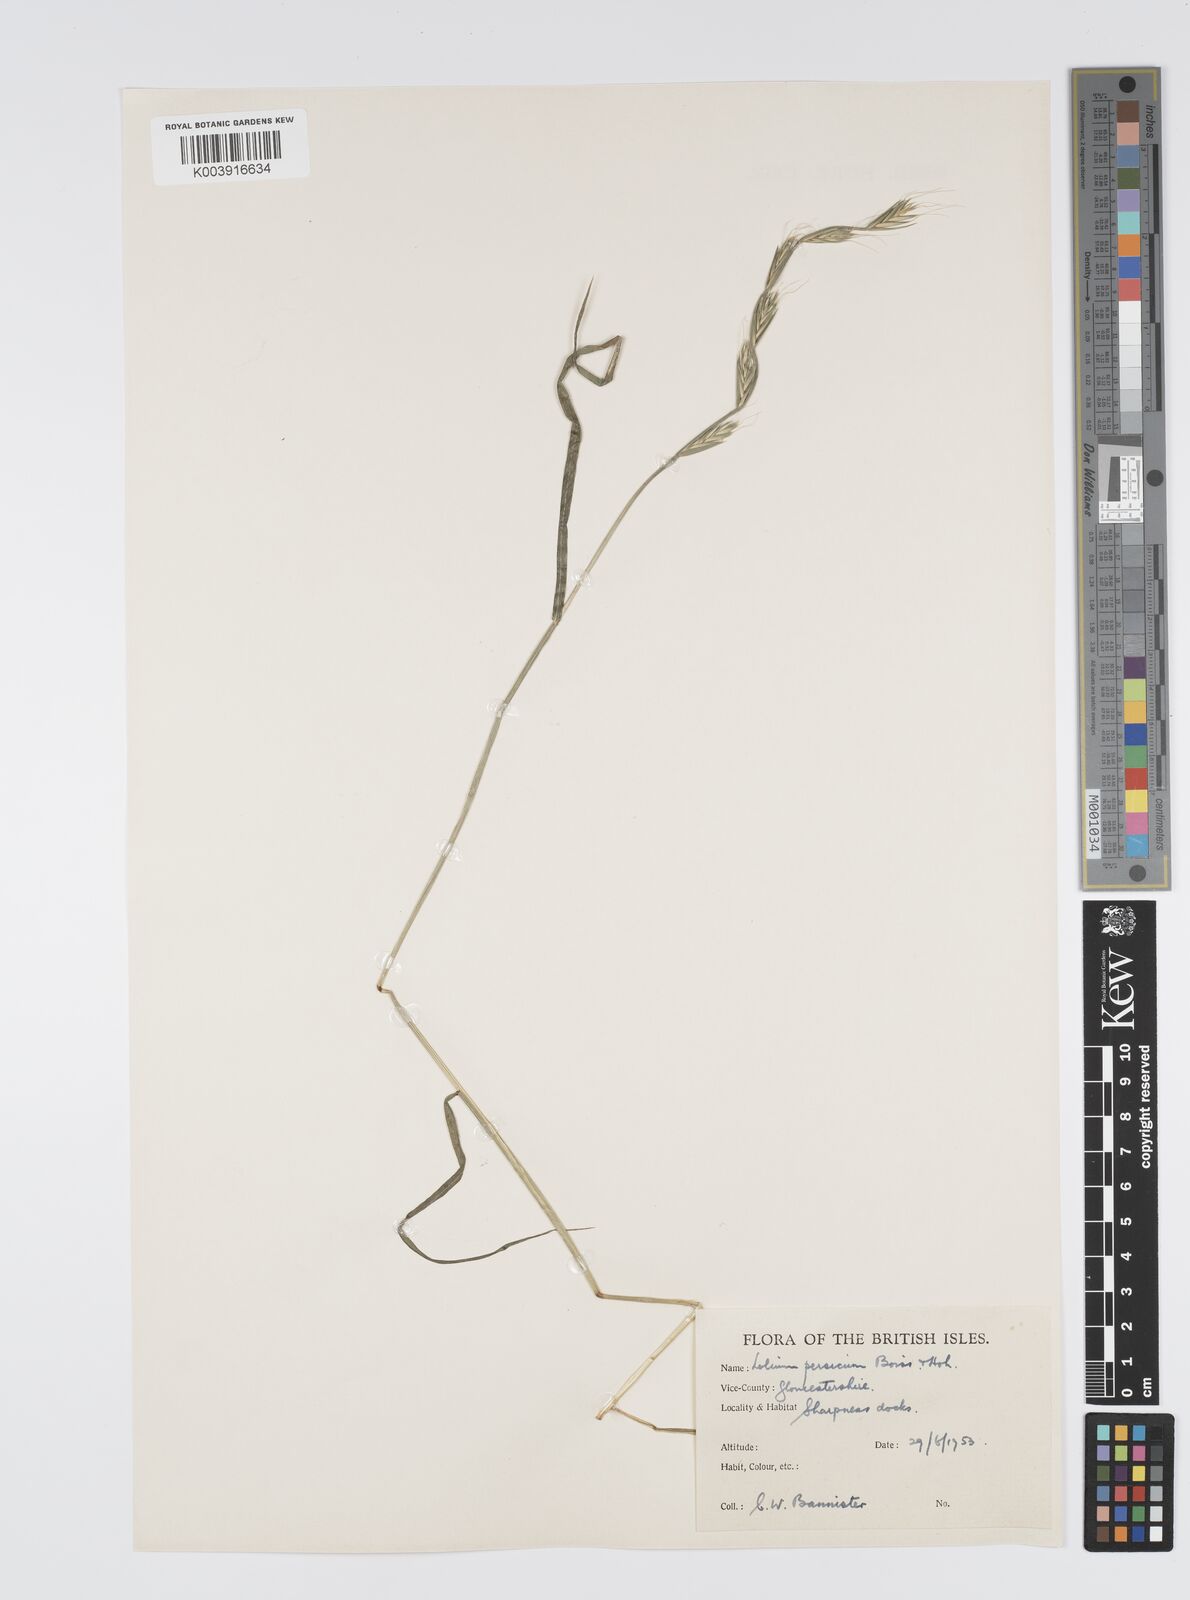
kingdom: Plantae
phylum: Tracheophyta
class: Liliopsida
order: Poales
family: Poaceae
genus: Lolium
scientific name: Lolium persicum
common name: Persian ryegrass
